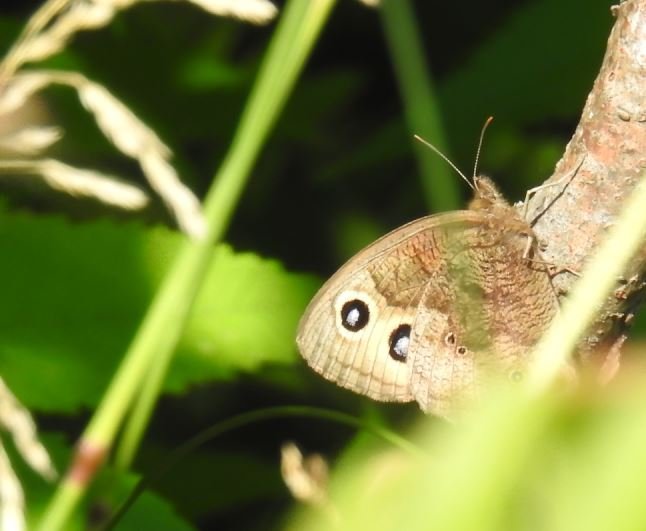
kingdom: Animalia
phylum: Arthropoda
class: Insecta
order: Lepidoptera
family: Nymphalidae
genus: Cercyonis
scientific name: Cercyonis pegala
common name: Common Wood-Nymph
